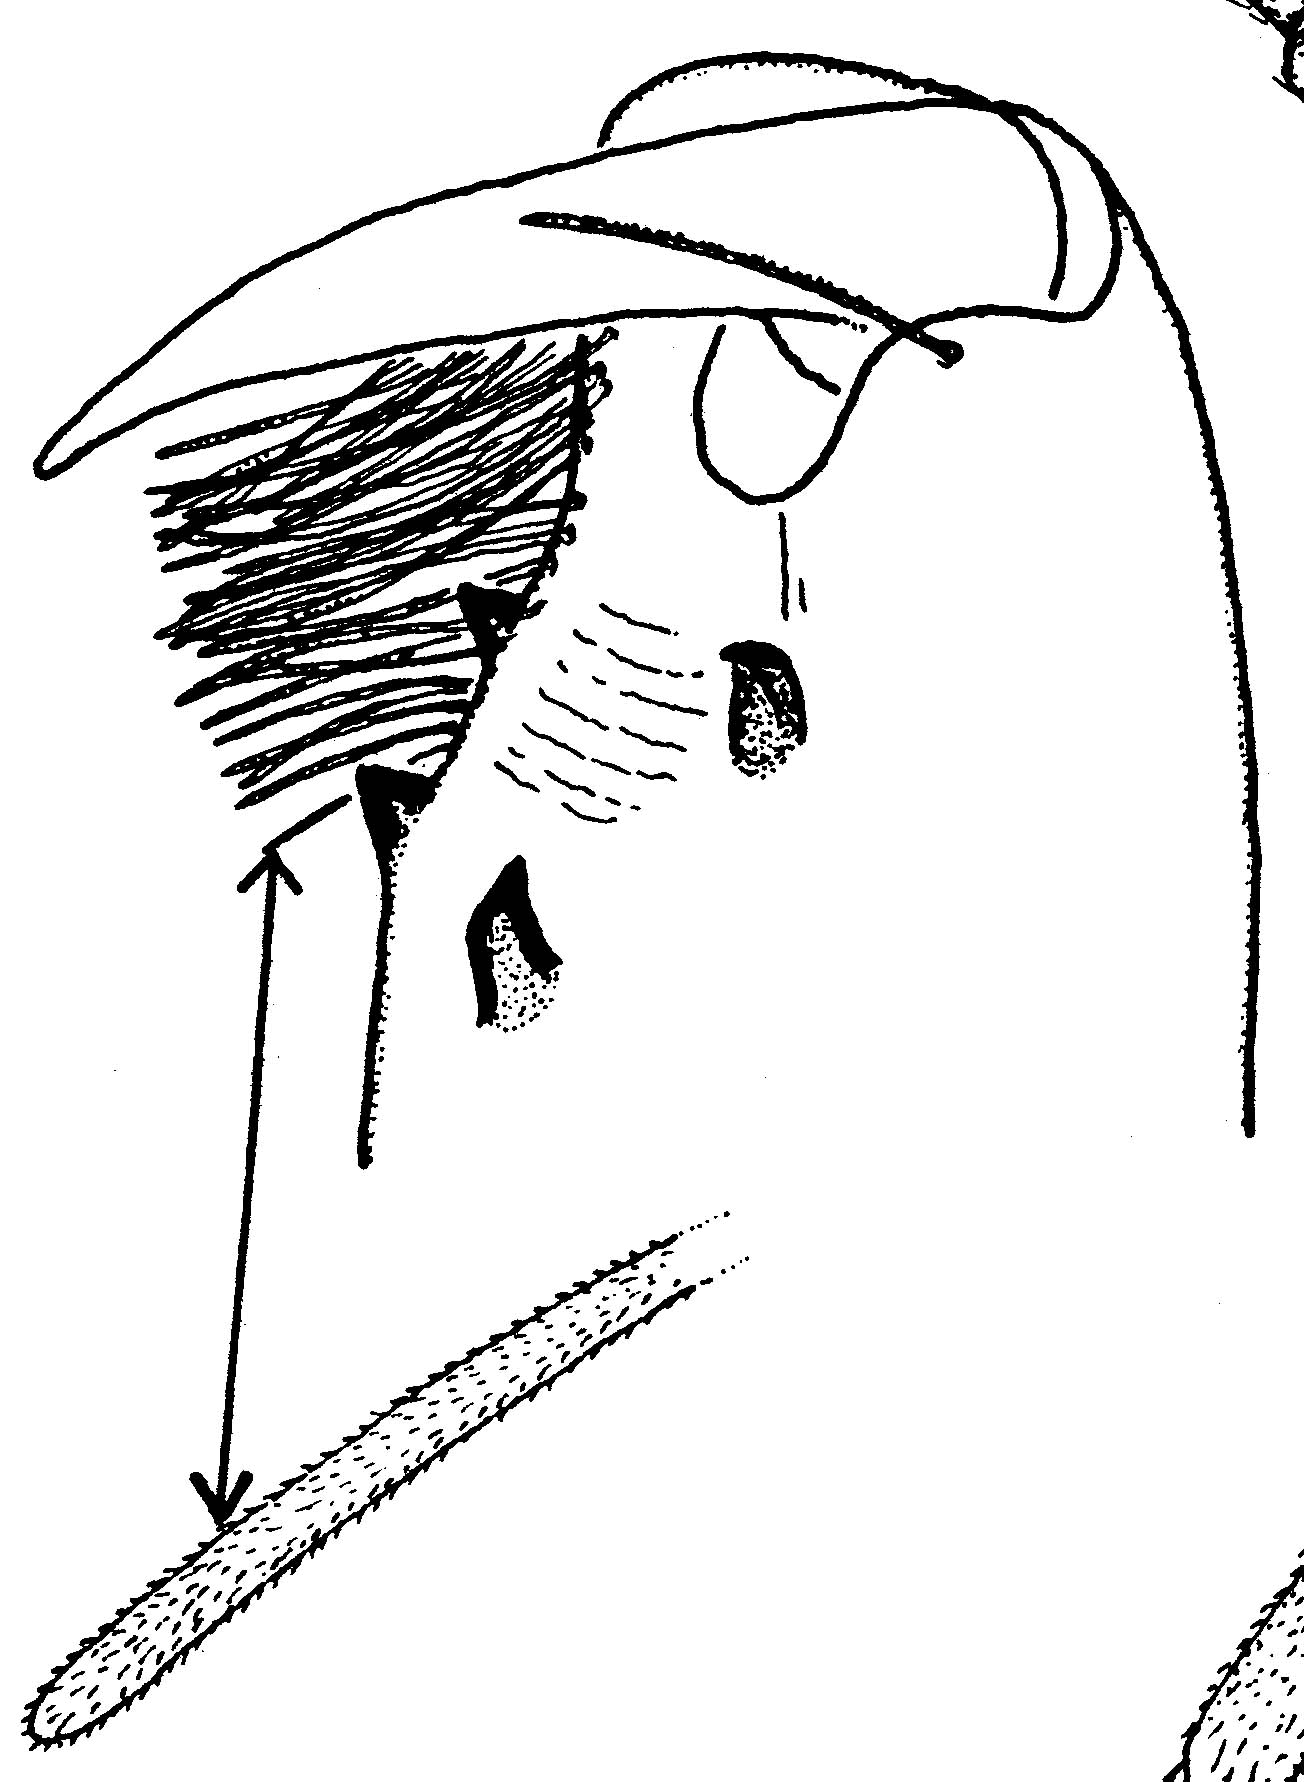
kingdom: Animalia
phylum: Arthropoda
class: Arachnida
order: Araneae
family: Gnaphosidae
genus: Kaitawa
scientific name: Kaitawa insulare
